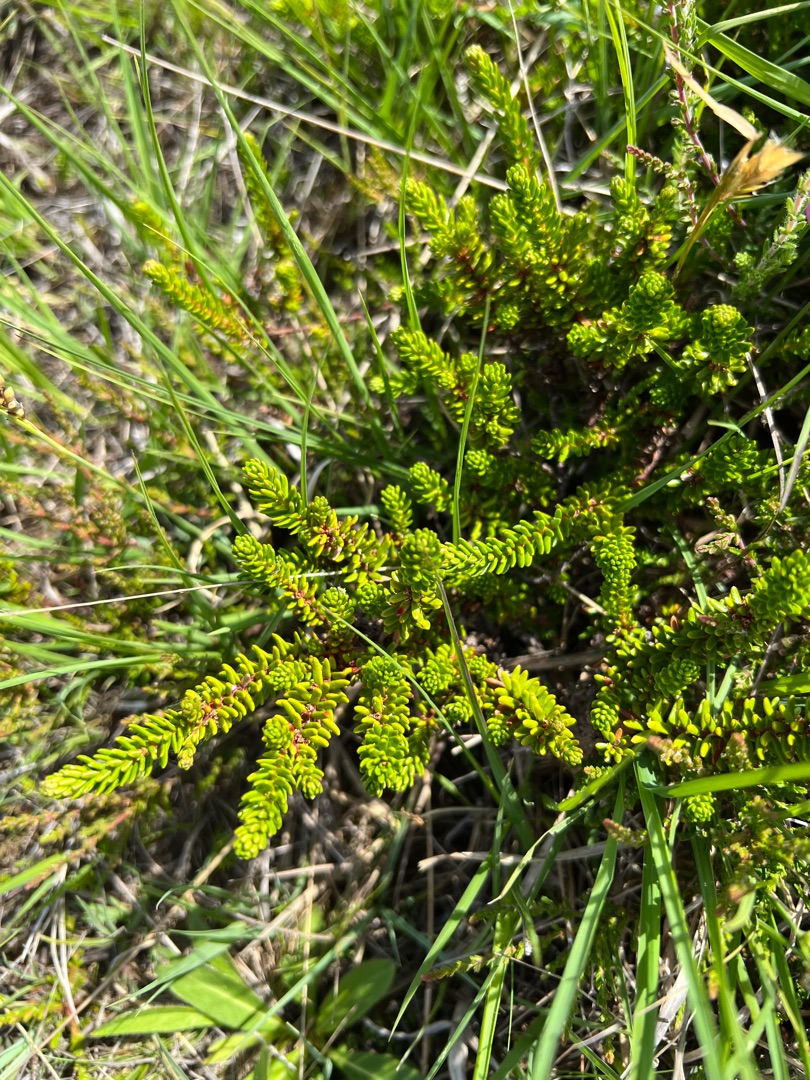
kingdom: Plantae
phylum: Tracheophyta
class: Magnoliopsida
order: Ericales
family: Ericaceae
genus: Empetrum
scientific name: Empetrum nigrum
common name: Revling
